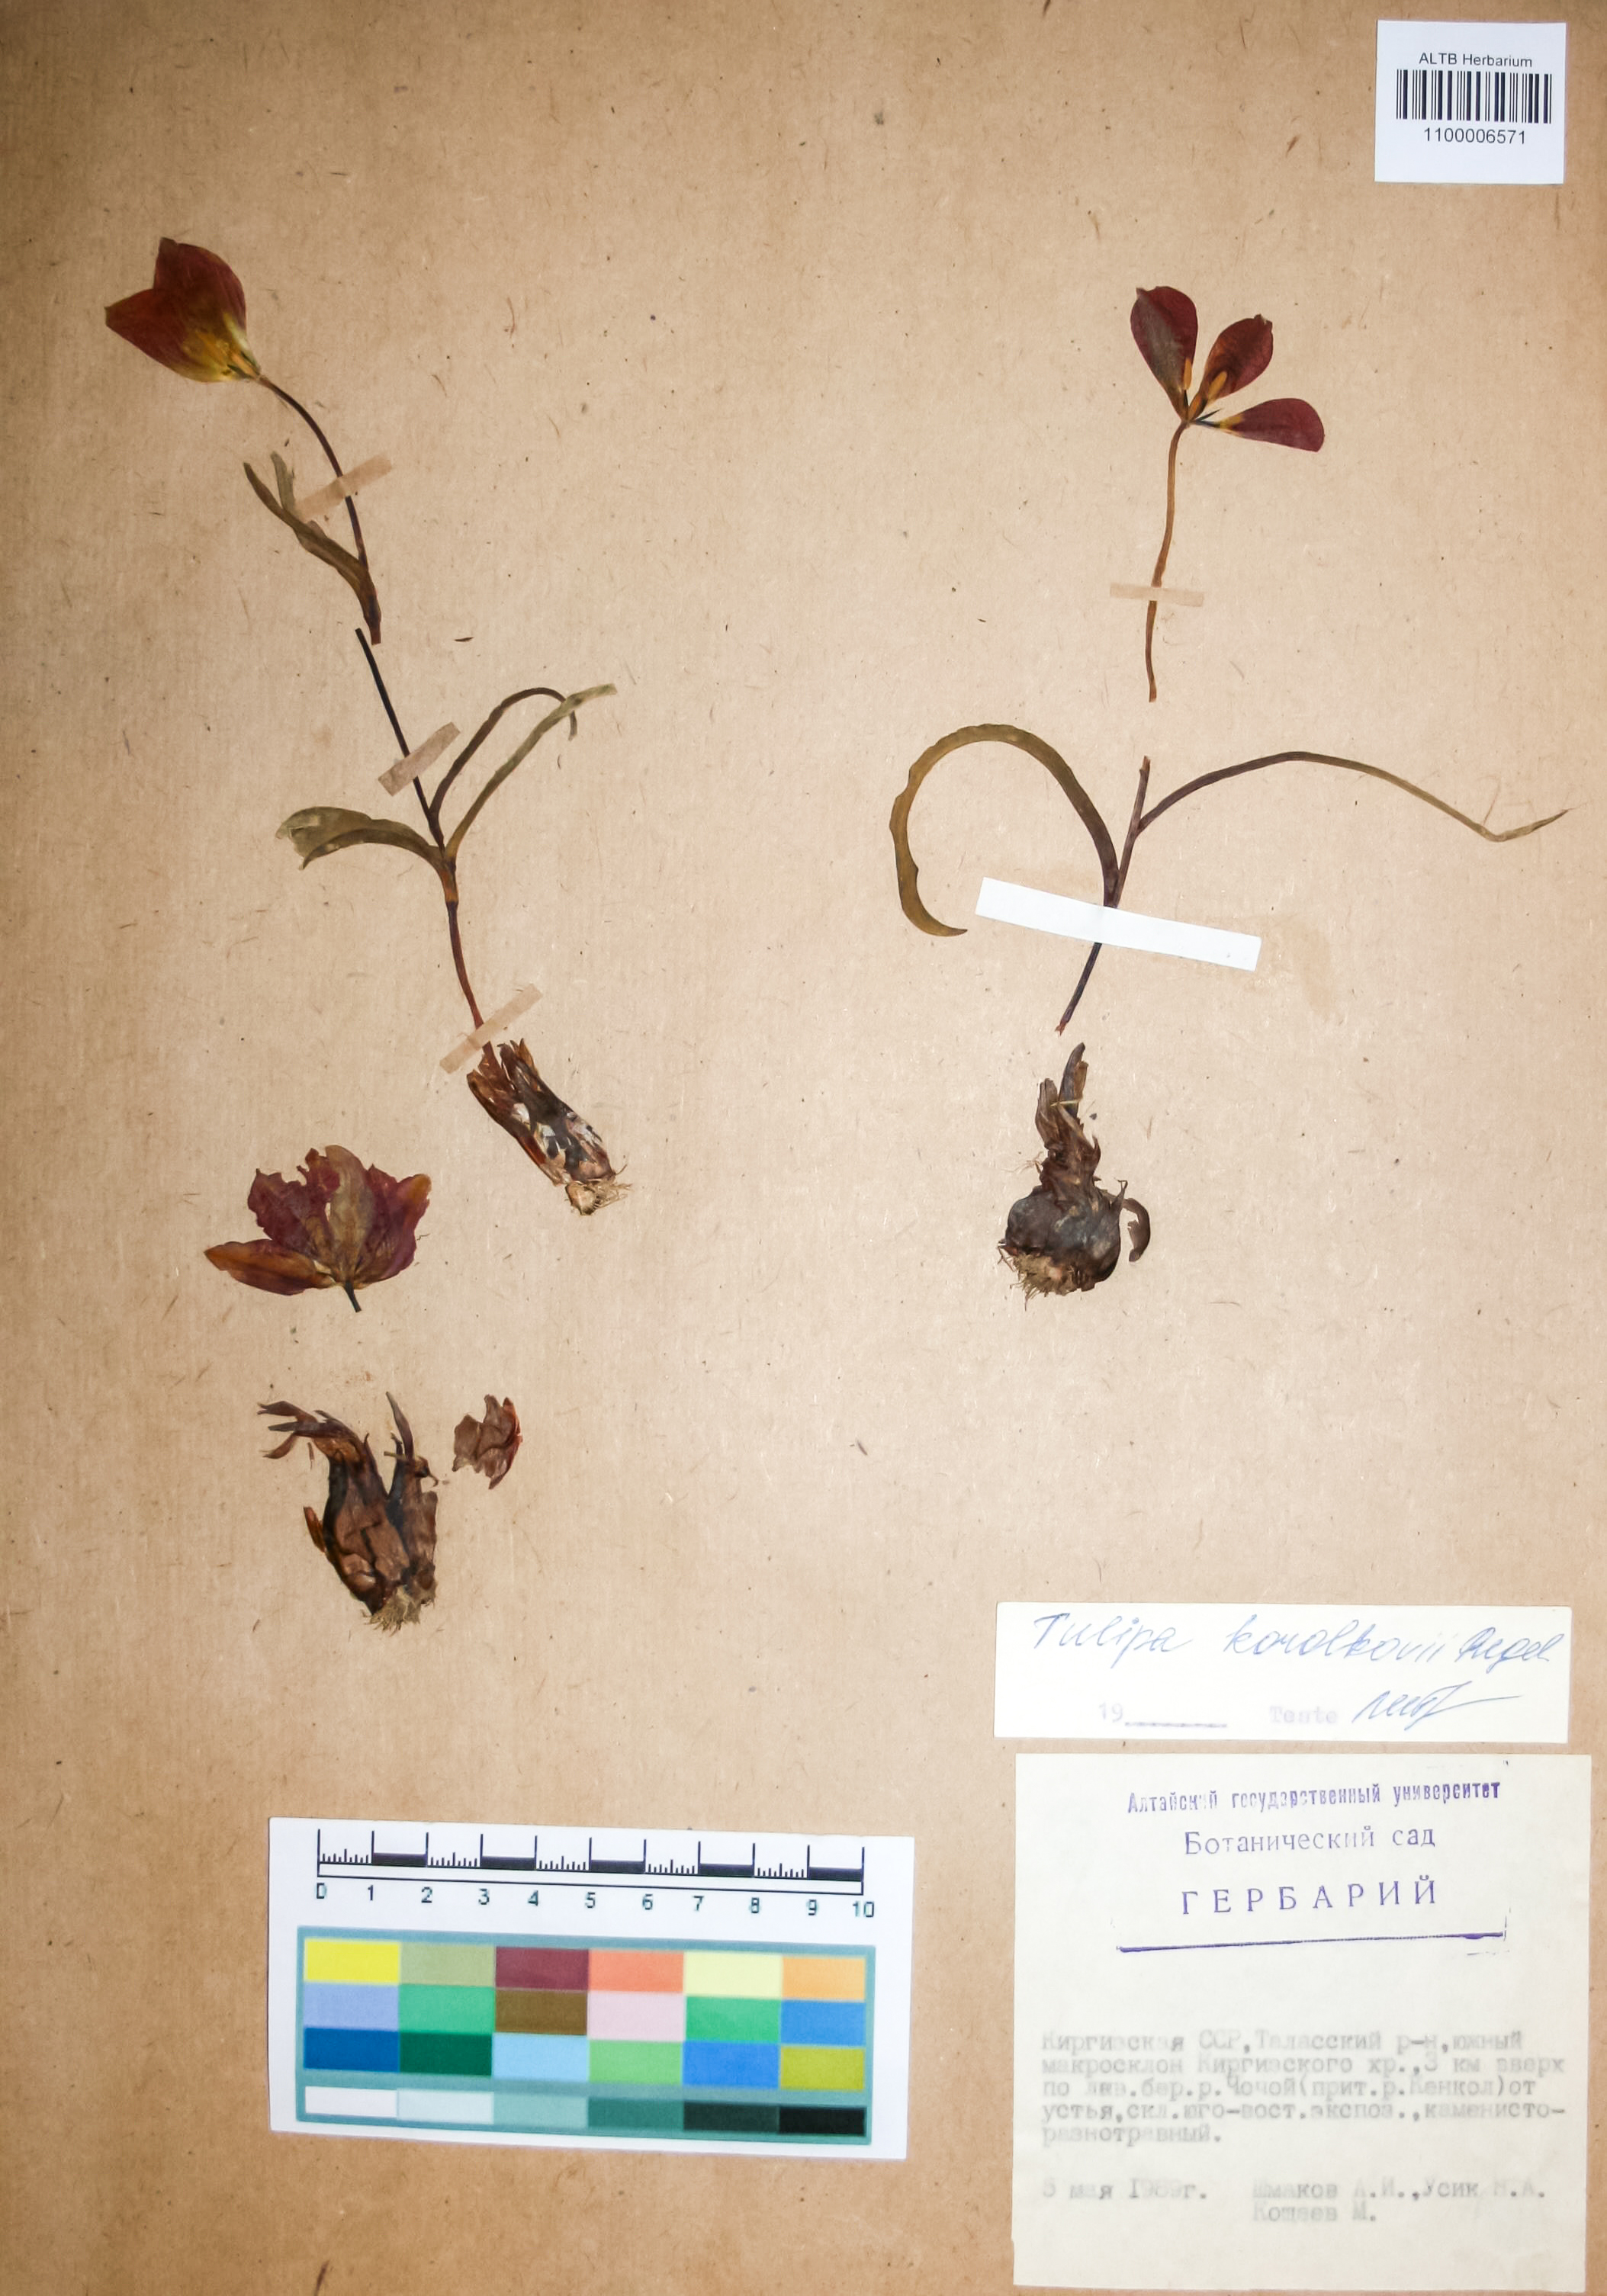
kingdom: Plantae
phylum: Tracheophyta
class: Liliopsida
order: Liliales
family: Liliaceae
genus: Tulipa
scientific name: Tulipa korolkowii
